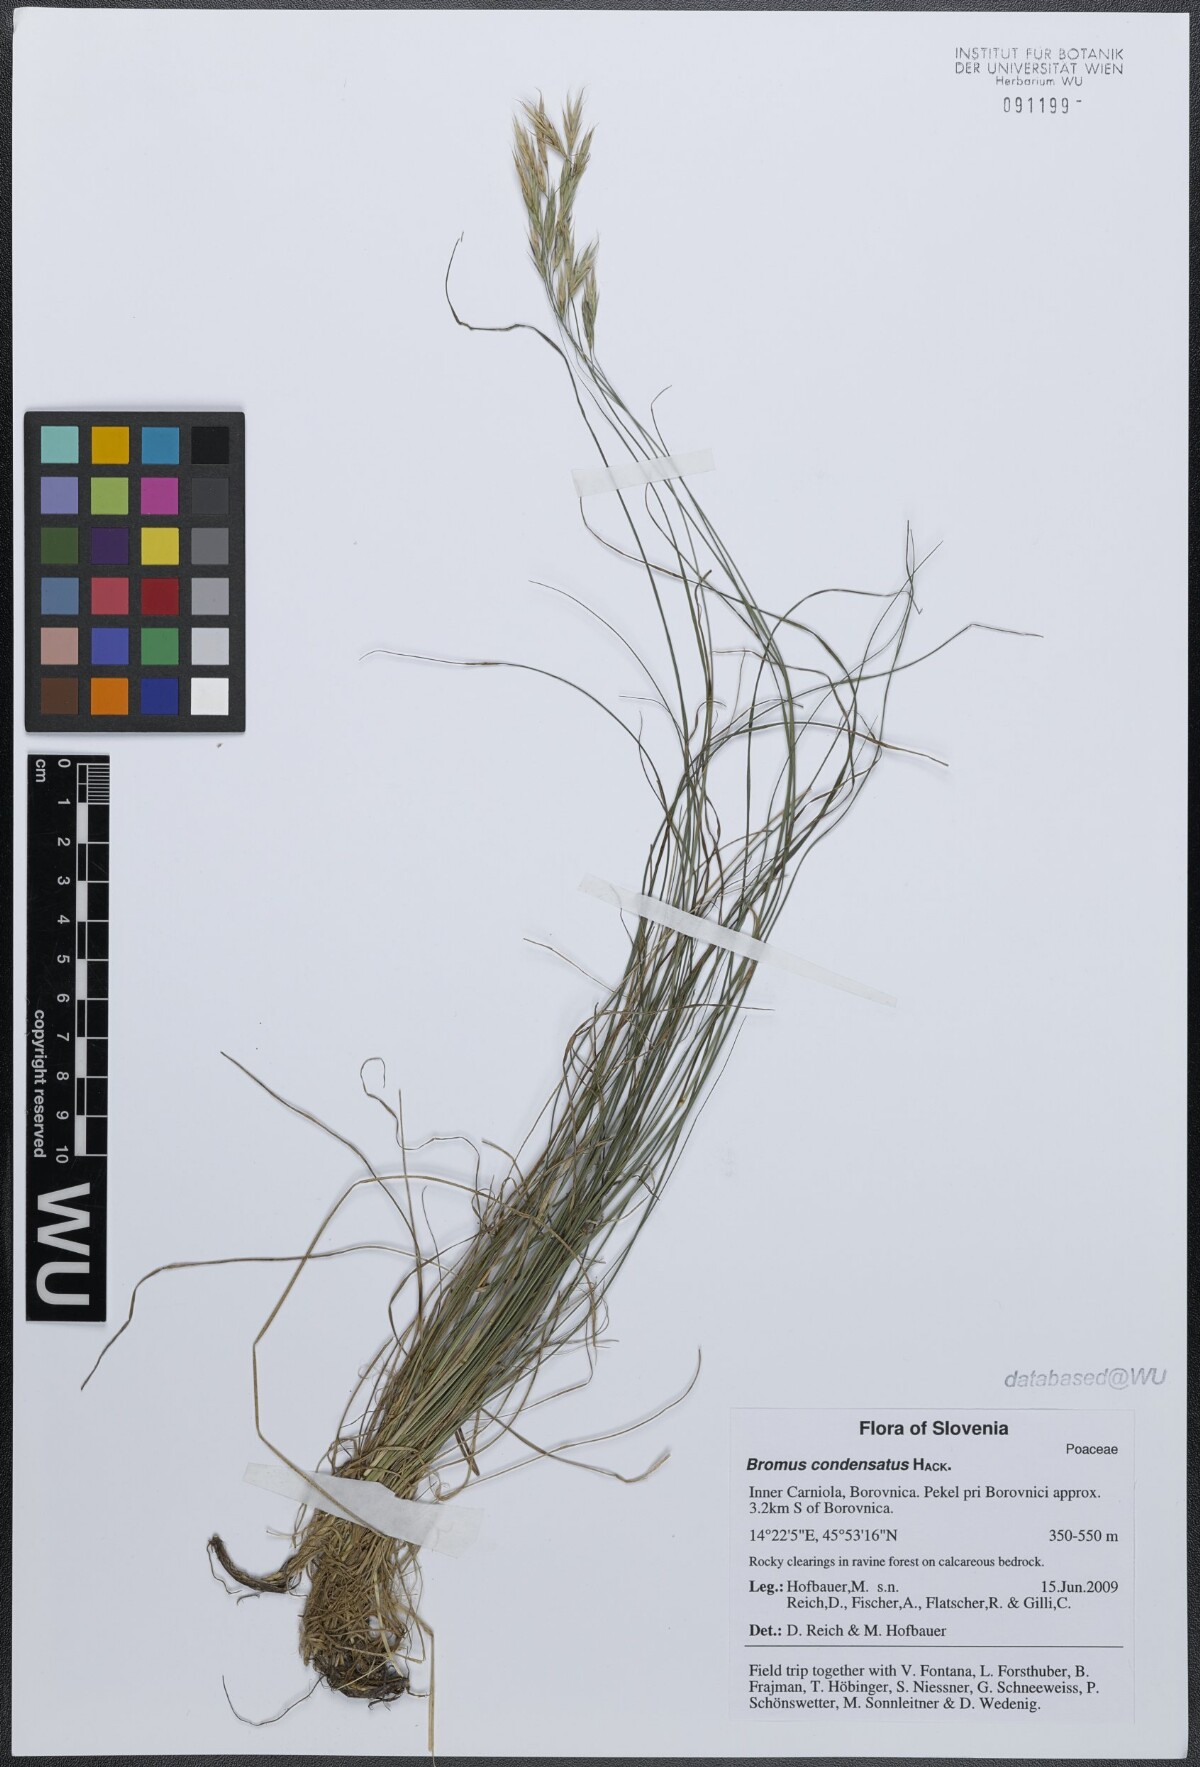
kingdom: Plantae
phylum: Tracheophyta
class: Liliopsida
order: Poales
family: Poaceae
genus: Bromus
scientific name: Bromus condensatus
